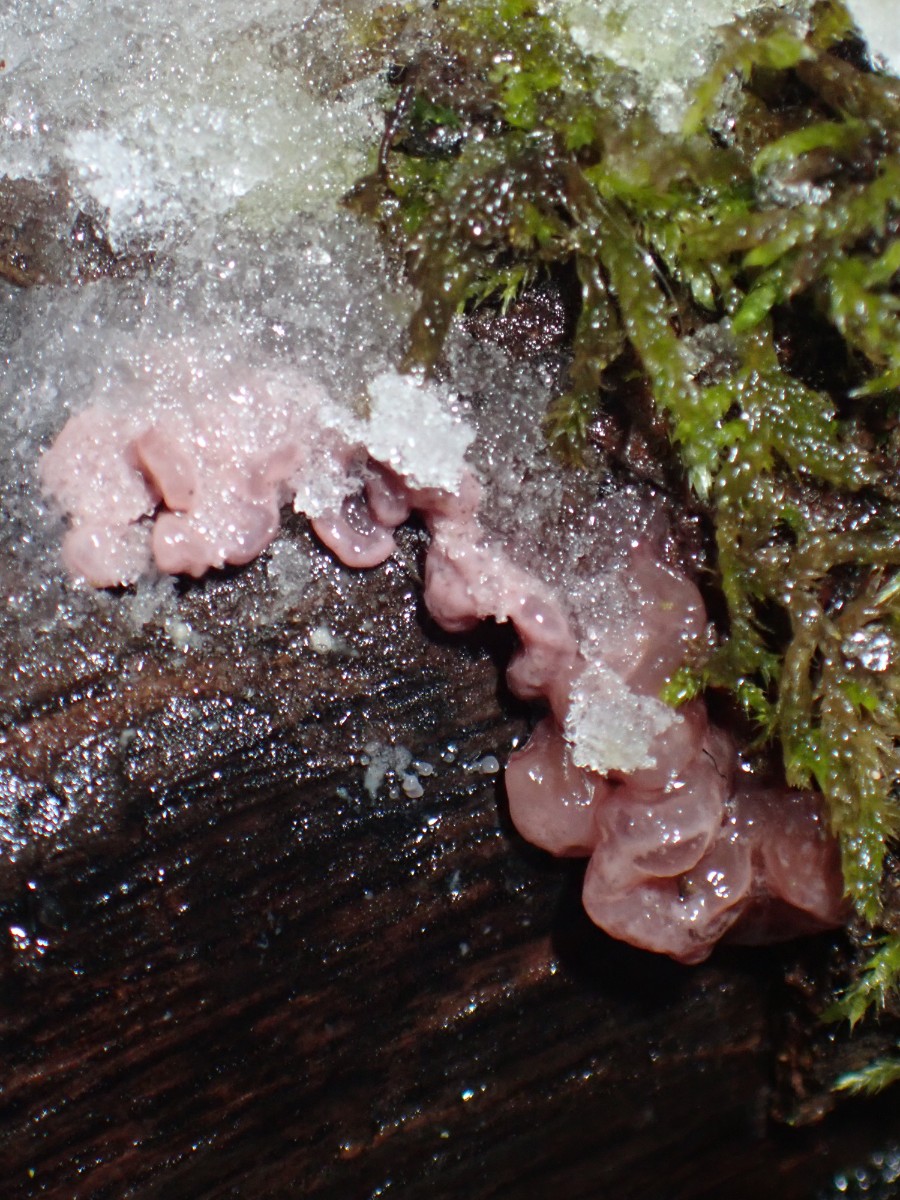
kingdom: Fungi
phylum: Ascomycota
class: Leotiomycetes
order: Helotiales
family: Gelatinodiscaceae
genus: Ascocoryne
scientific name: Ascocoryne sarcoides
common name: rødlilla sejskive
